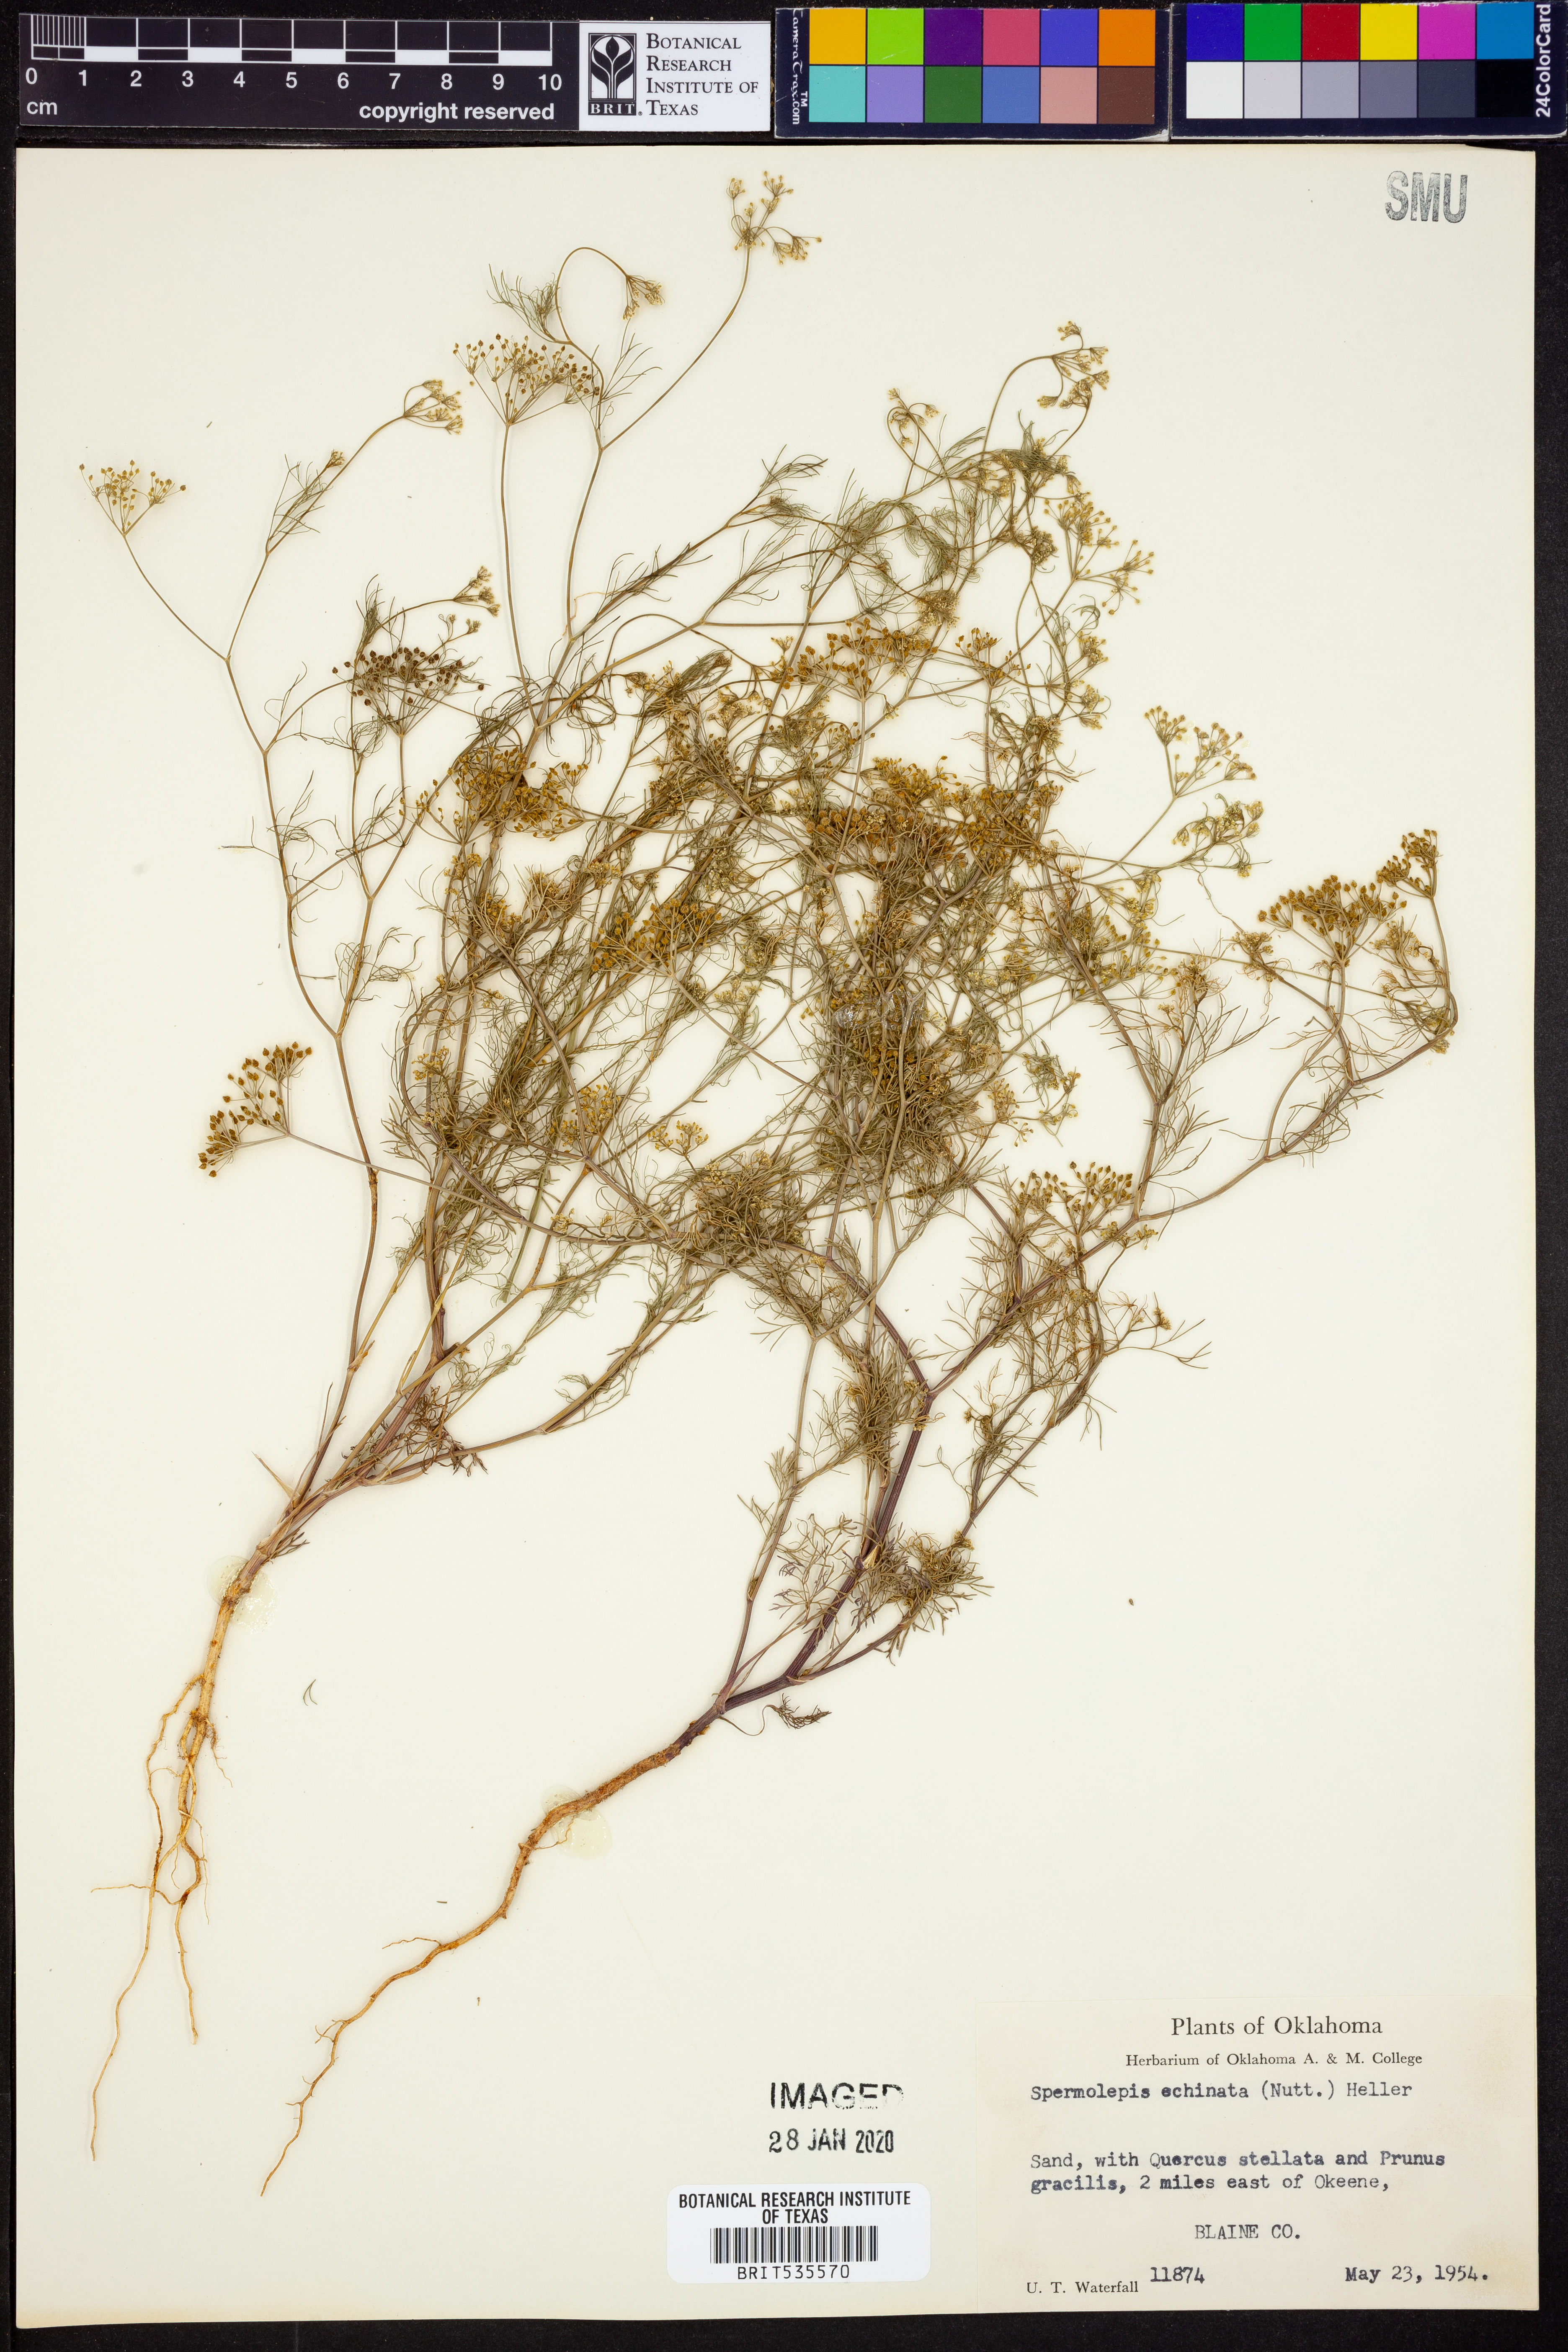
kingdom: Plantae
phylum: Tracheophyta
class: Magnoliopsida
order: Apiales
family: Apiaceae
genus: Spermolepis
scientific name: Spermolepis echinata
